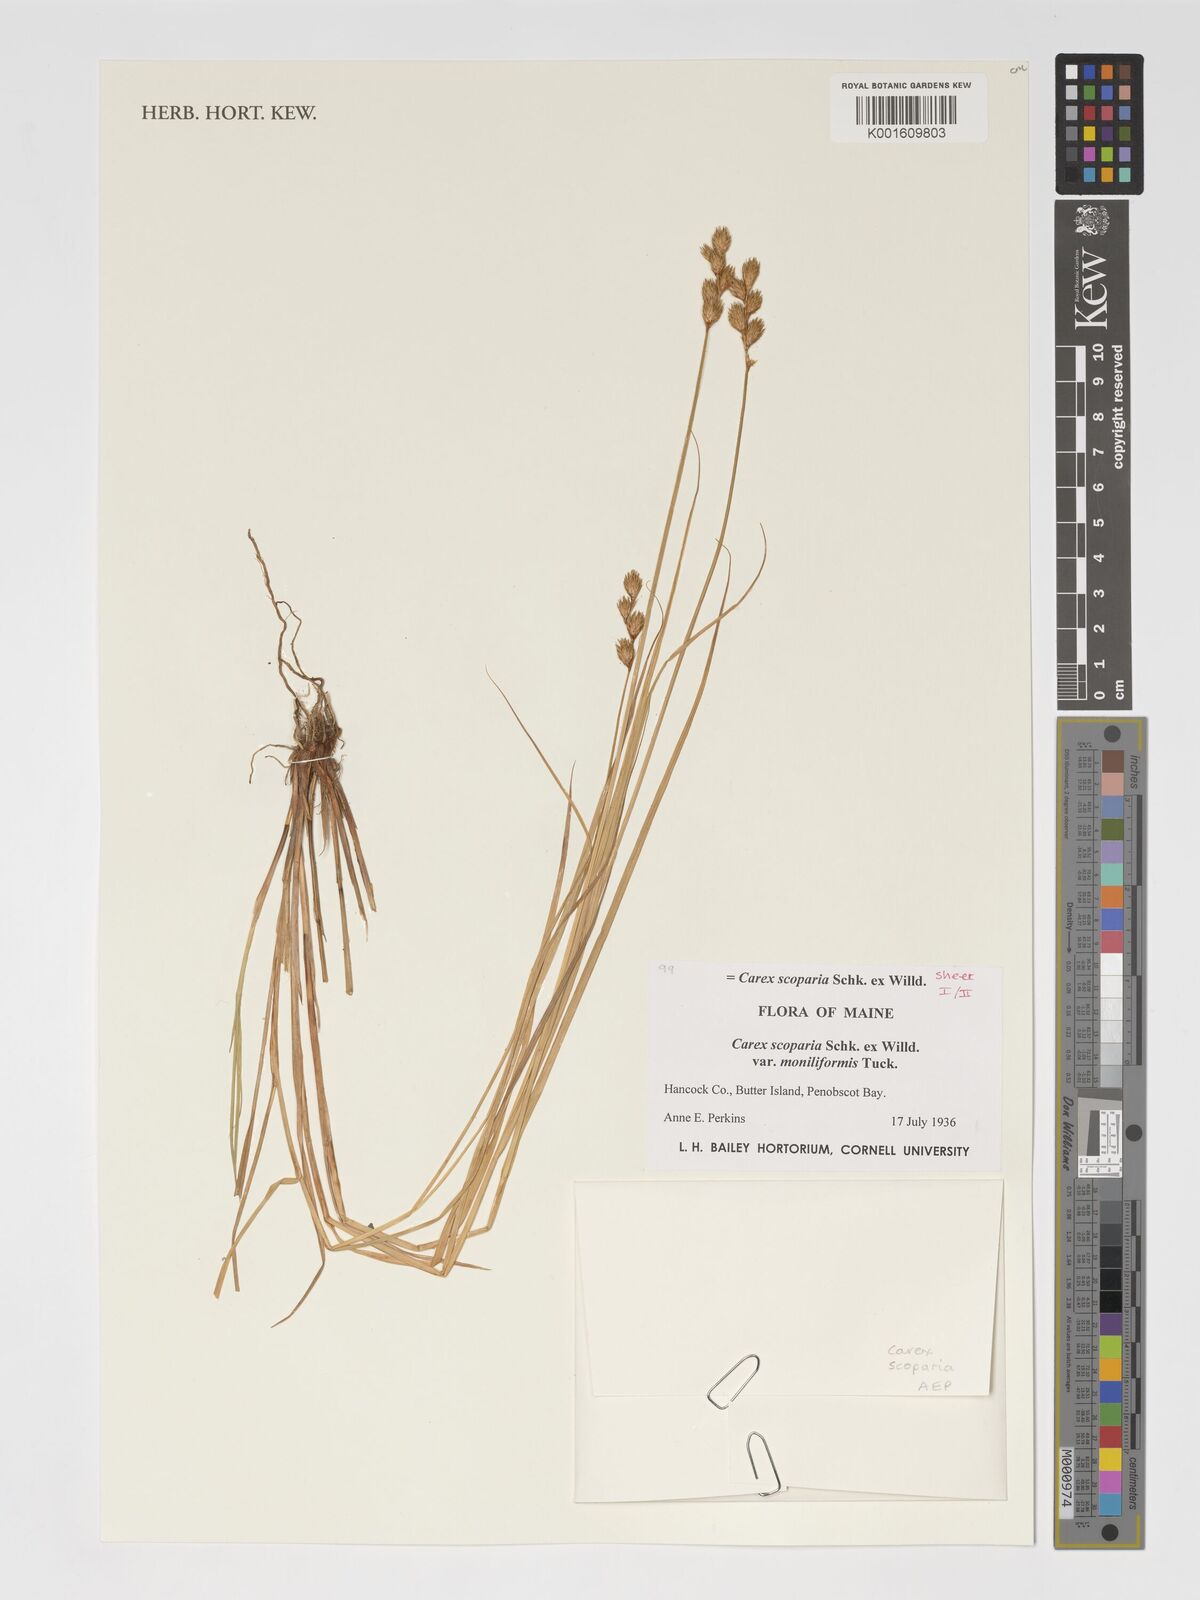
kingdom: Plantae
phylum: Tracheophyta
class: Liliopsida
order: Poales
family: Cyperaceae
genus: Carex
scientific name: Carex scoparia
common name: Broom sedge
